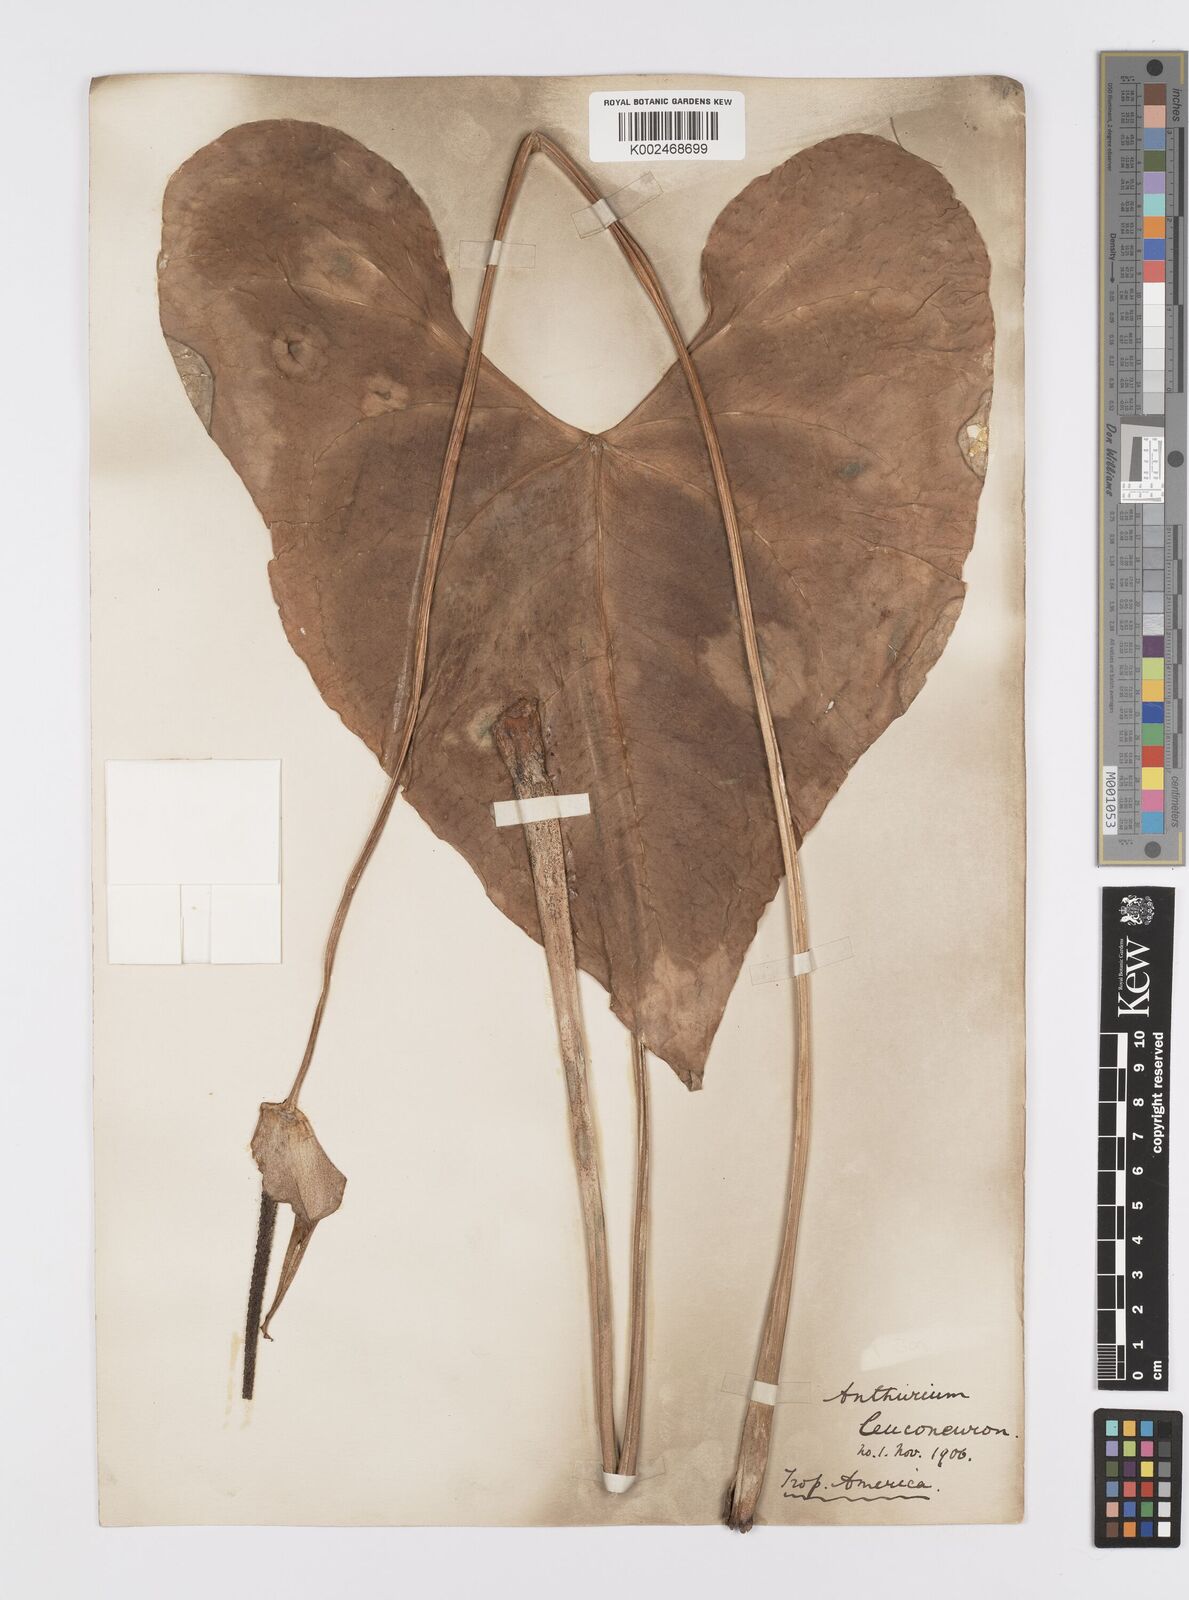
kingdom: Plantae
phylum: Tracheophyta
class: Liliopsida
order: Alismatales
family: Araceae
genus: Anthurium
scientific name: Anthurium leuconeurum
